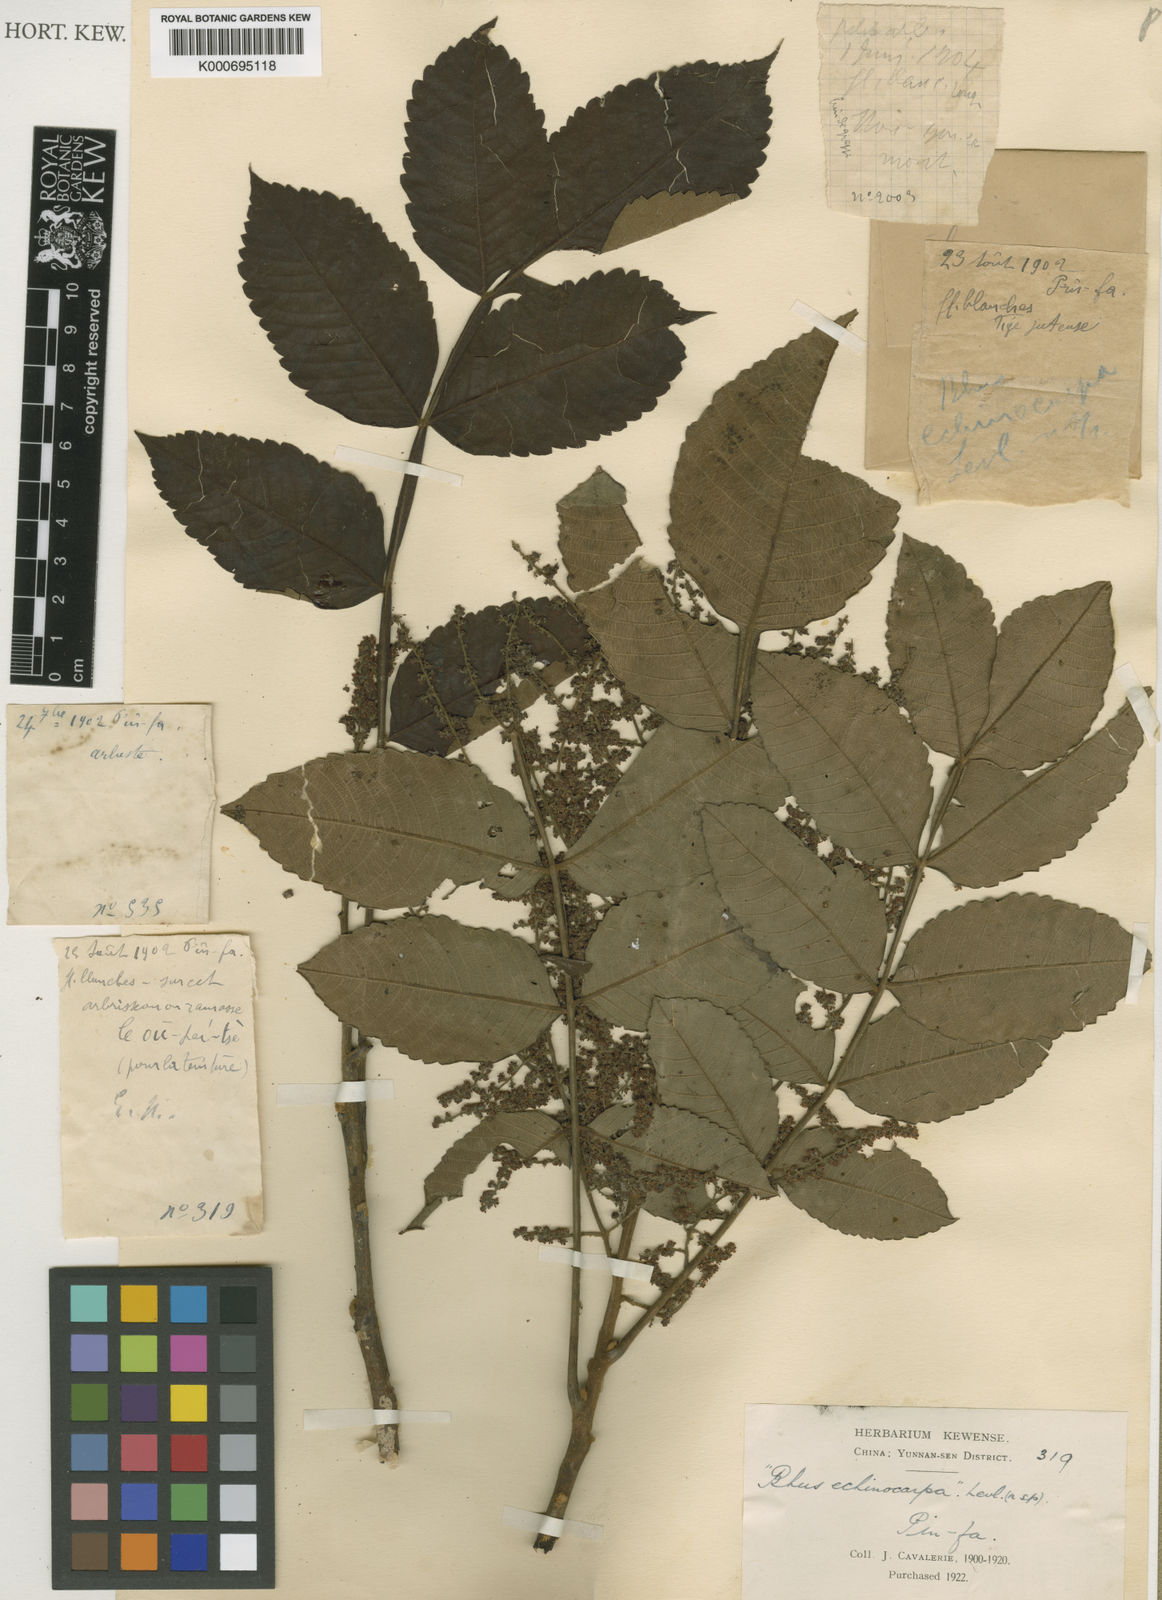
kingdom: Plantae
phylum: Tracheophyta
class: Magnoliopsida
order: Sapindales
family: Anacardiaceae
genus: Rhus
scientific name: Rhus
